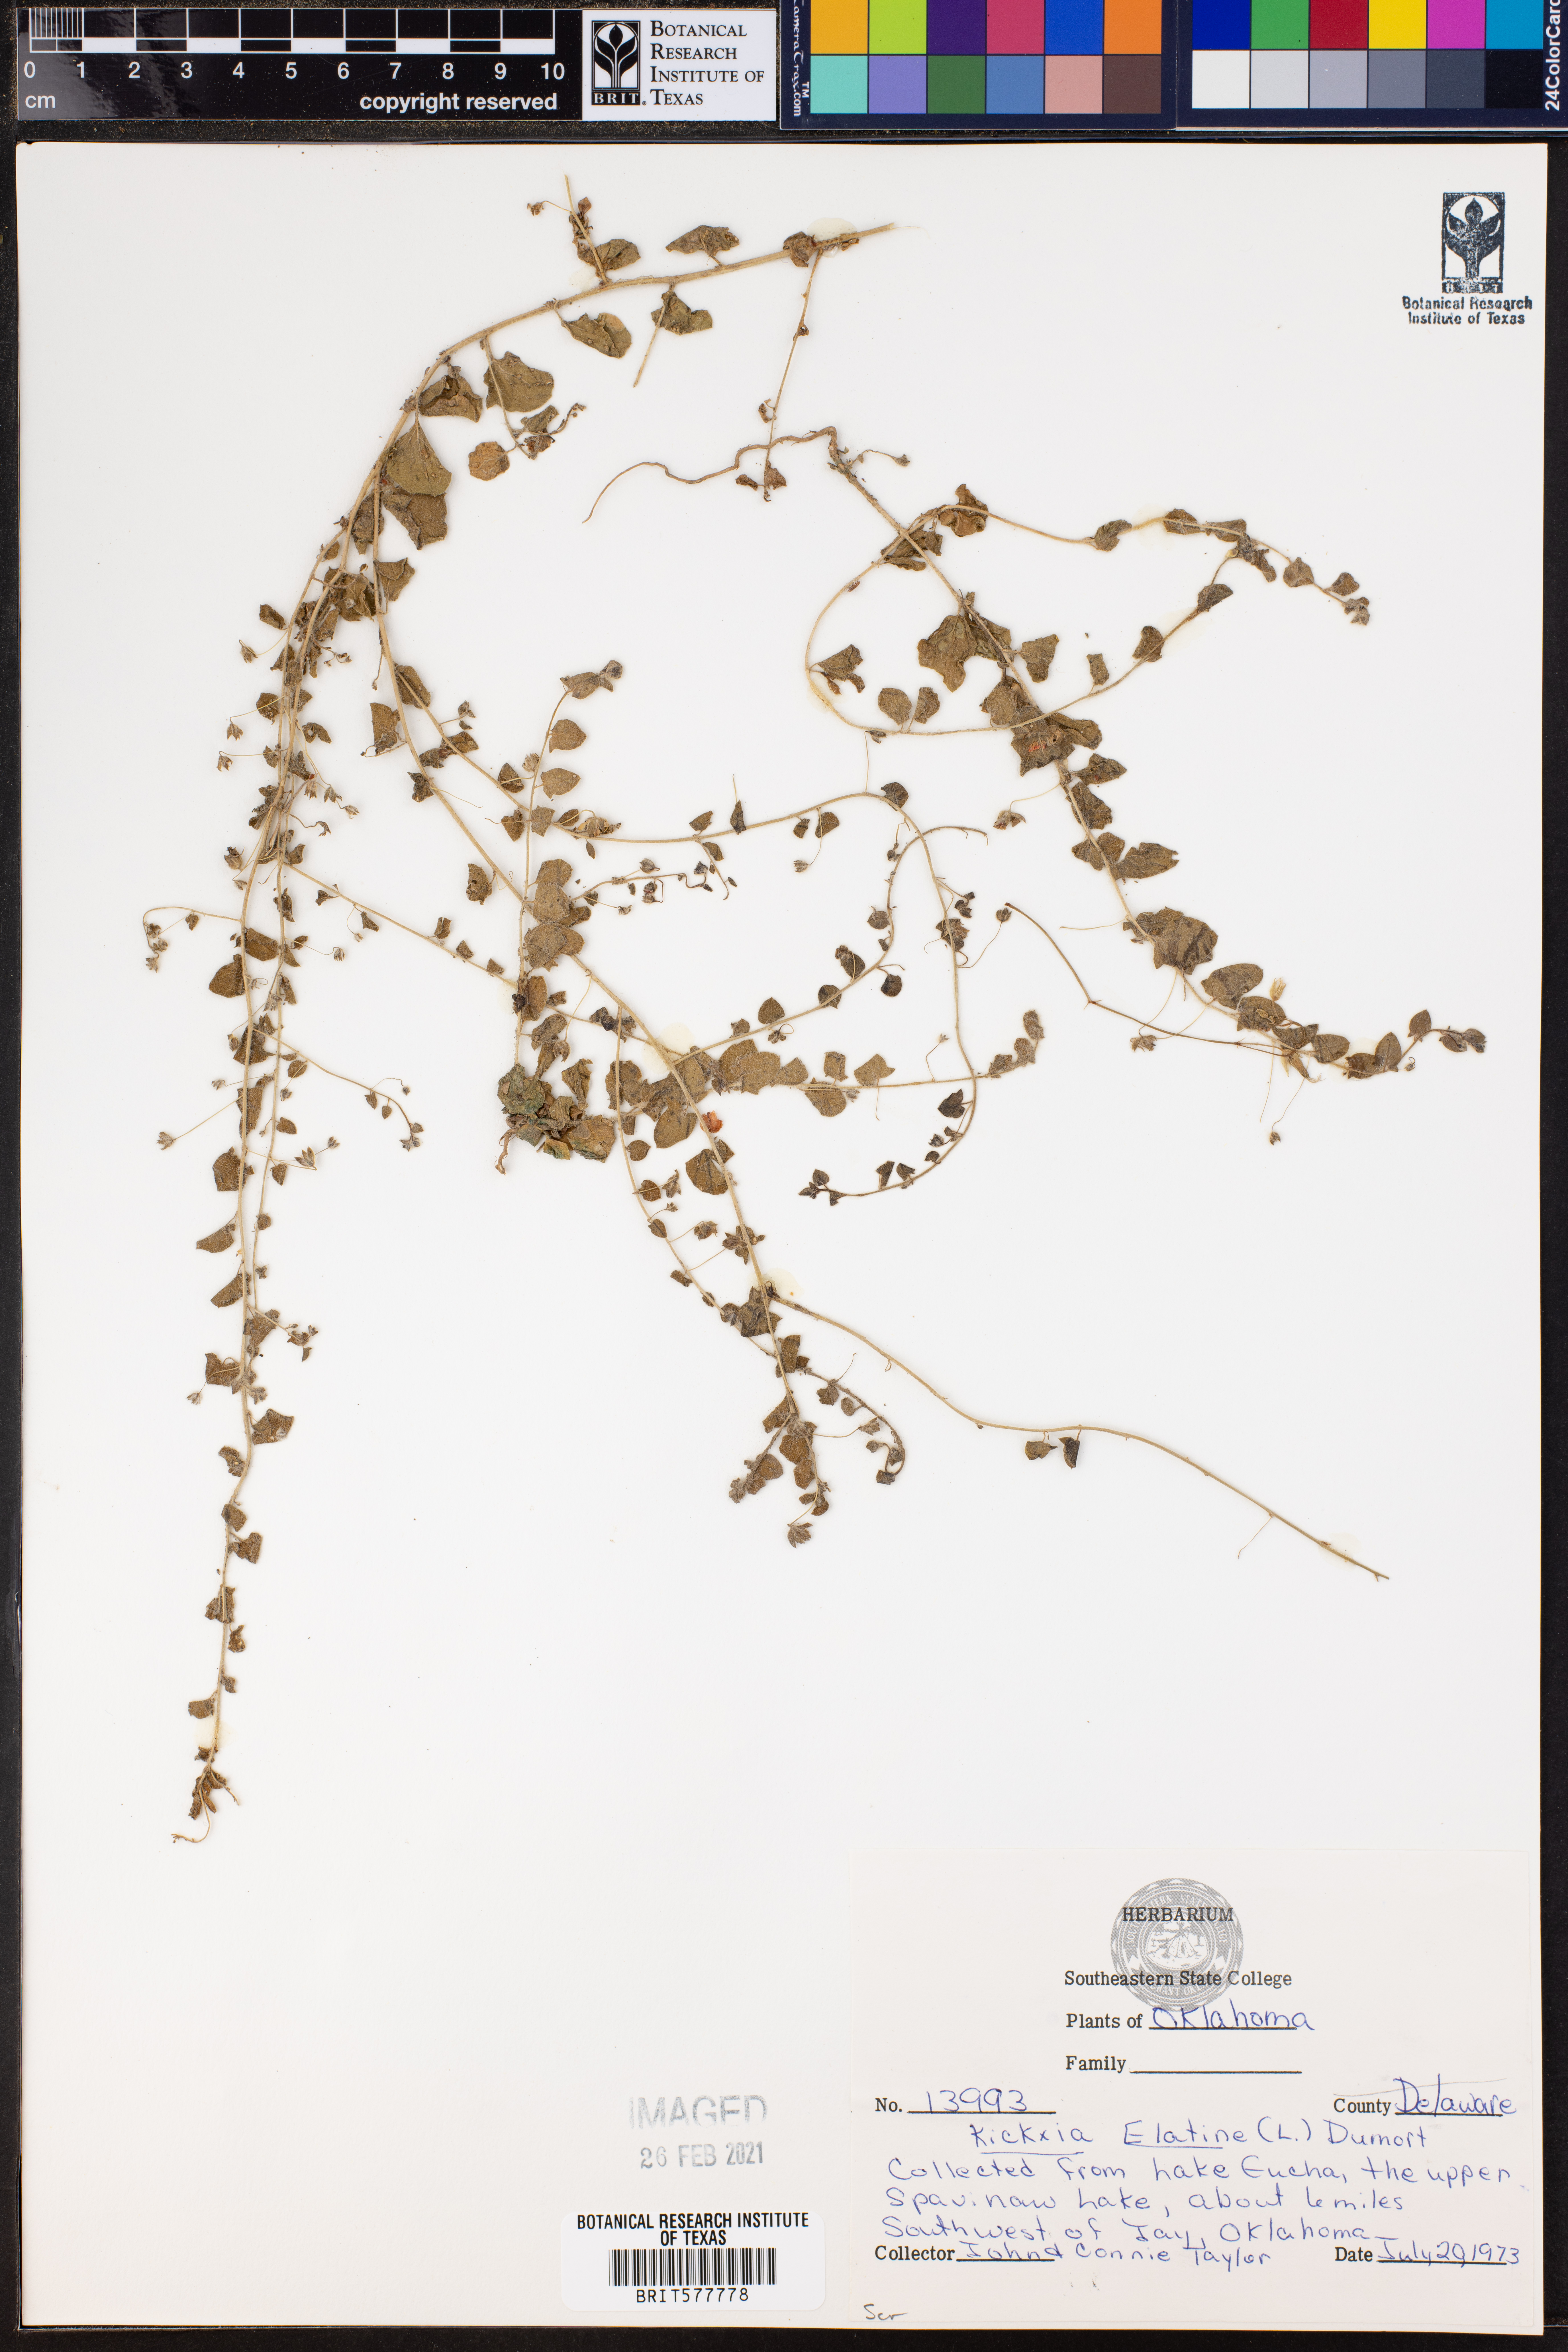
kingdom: Plantae
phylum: Tracheophyta
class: Magnoliopsida
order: Lamiales
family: Plantaginaceae
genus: Kickxia
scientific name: Kickxia elatine
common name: Sharp-leaved fluellen
